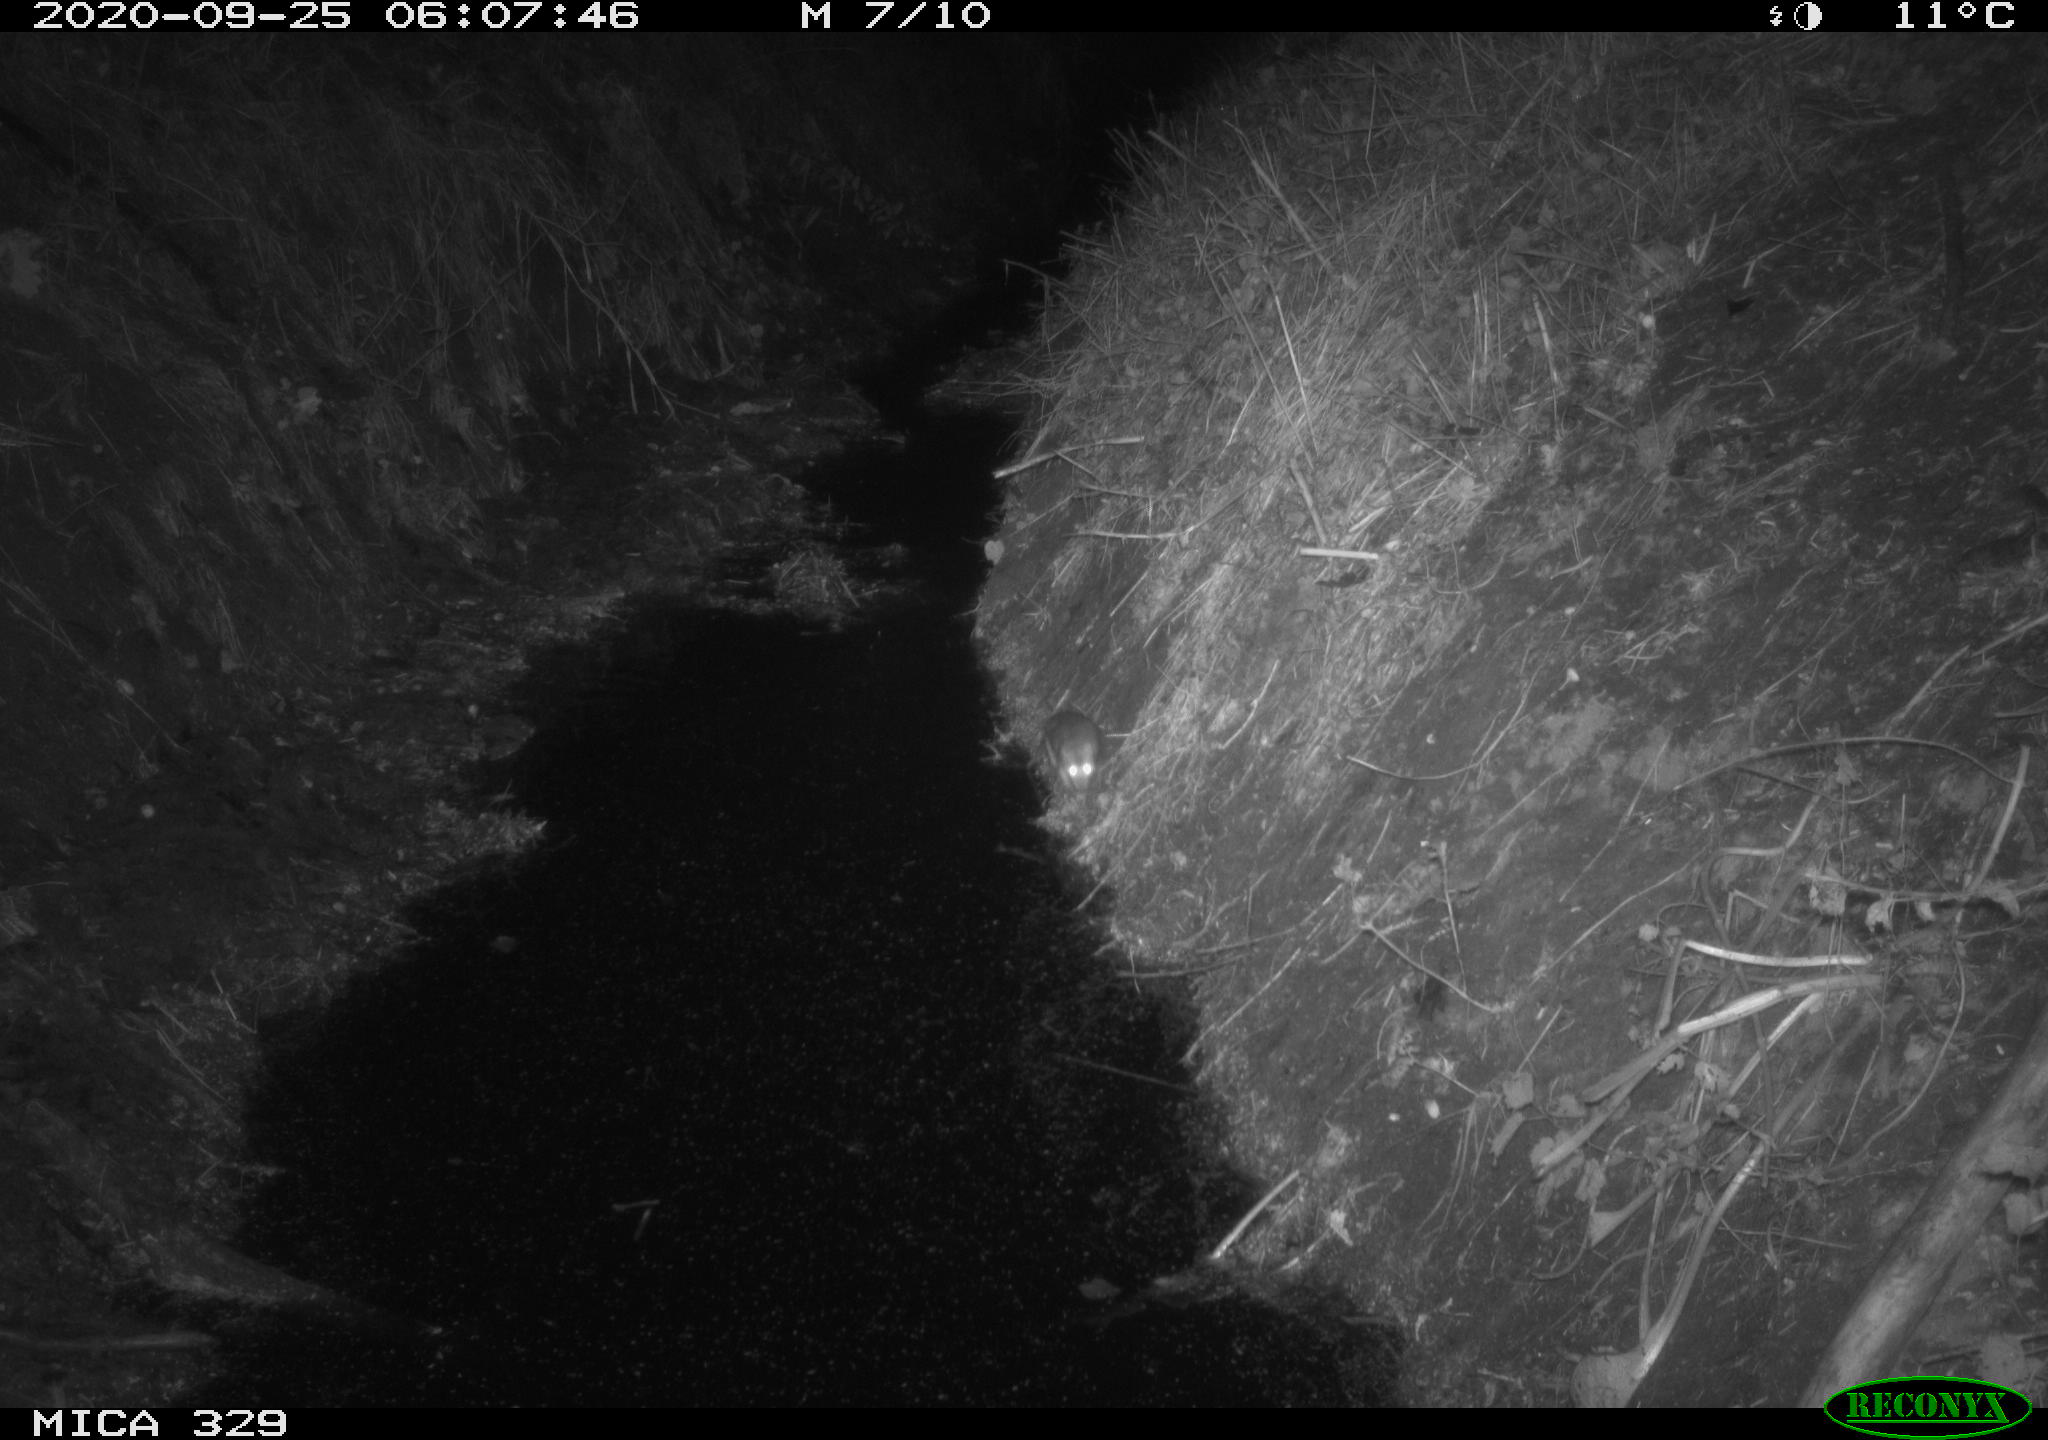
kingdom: Animalia
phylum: Chordata
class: Mammalia
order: Rodentia
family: Muridae
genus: Rattus
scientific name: Rattus norvegicus
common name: Brown rat
